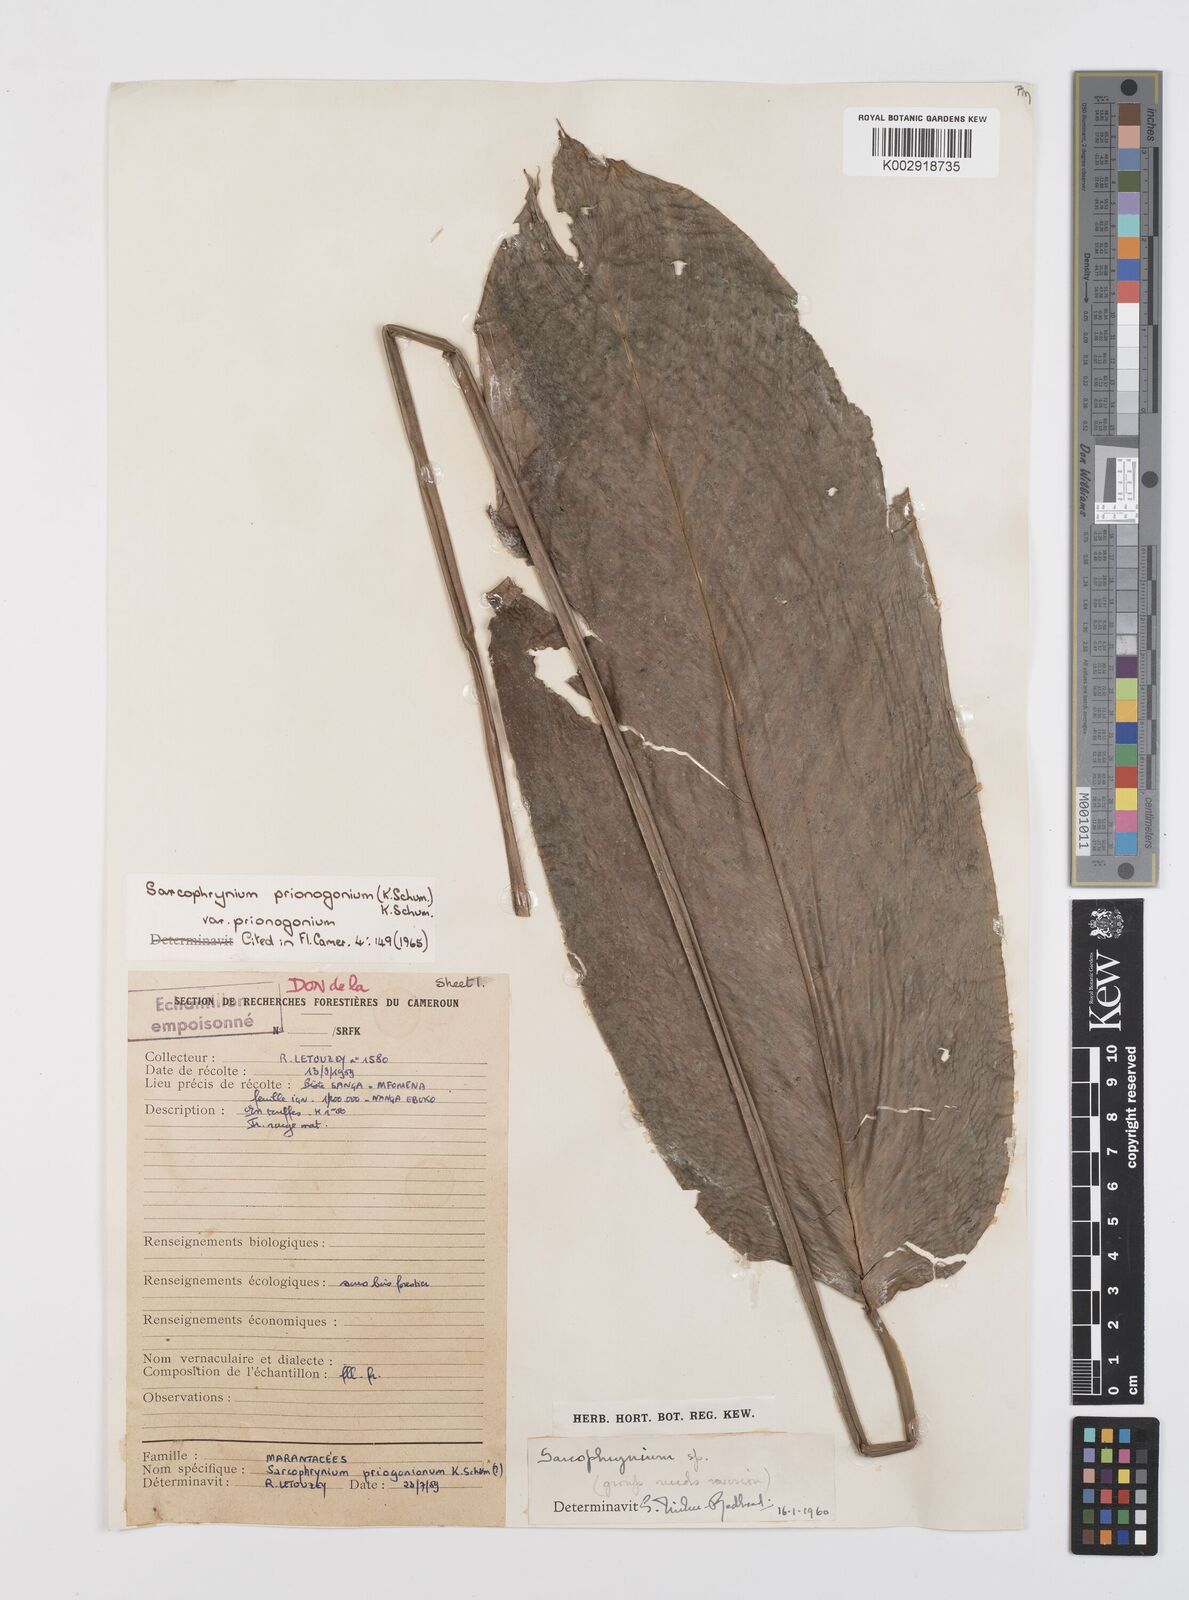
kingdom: Plantae
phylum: Tracheophyta
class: Liliopsida
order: Zingiberales
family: Marantaceae
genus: Sarcophrynium
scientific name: Sarcophrynium prionogonium
